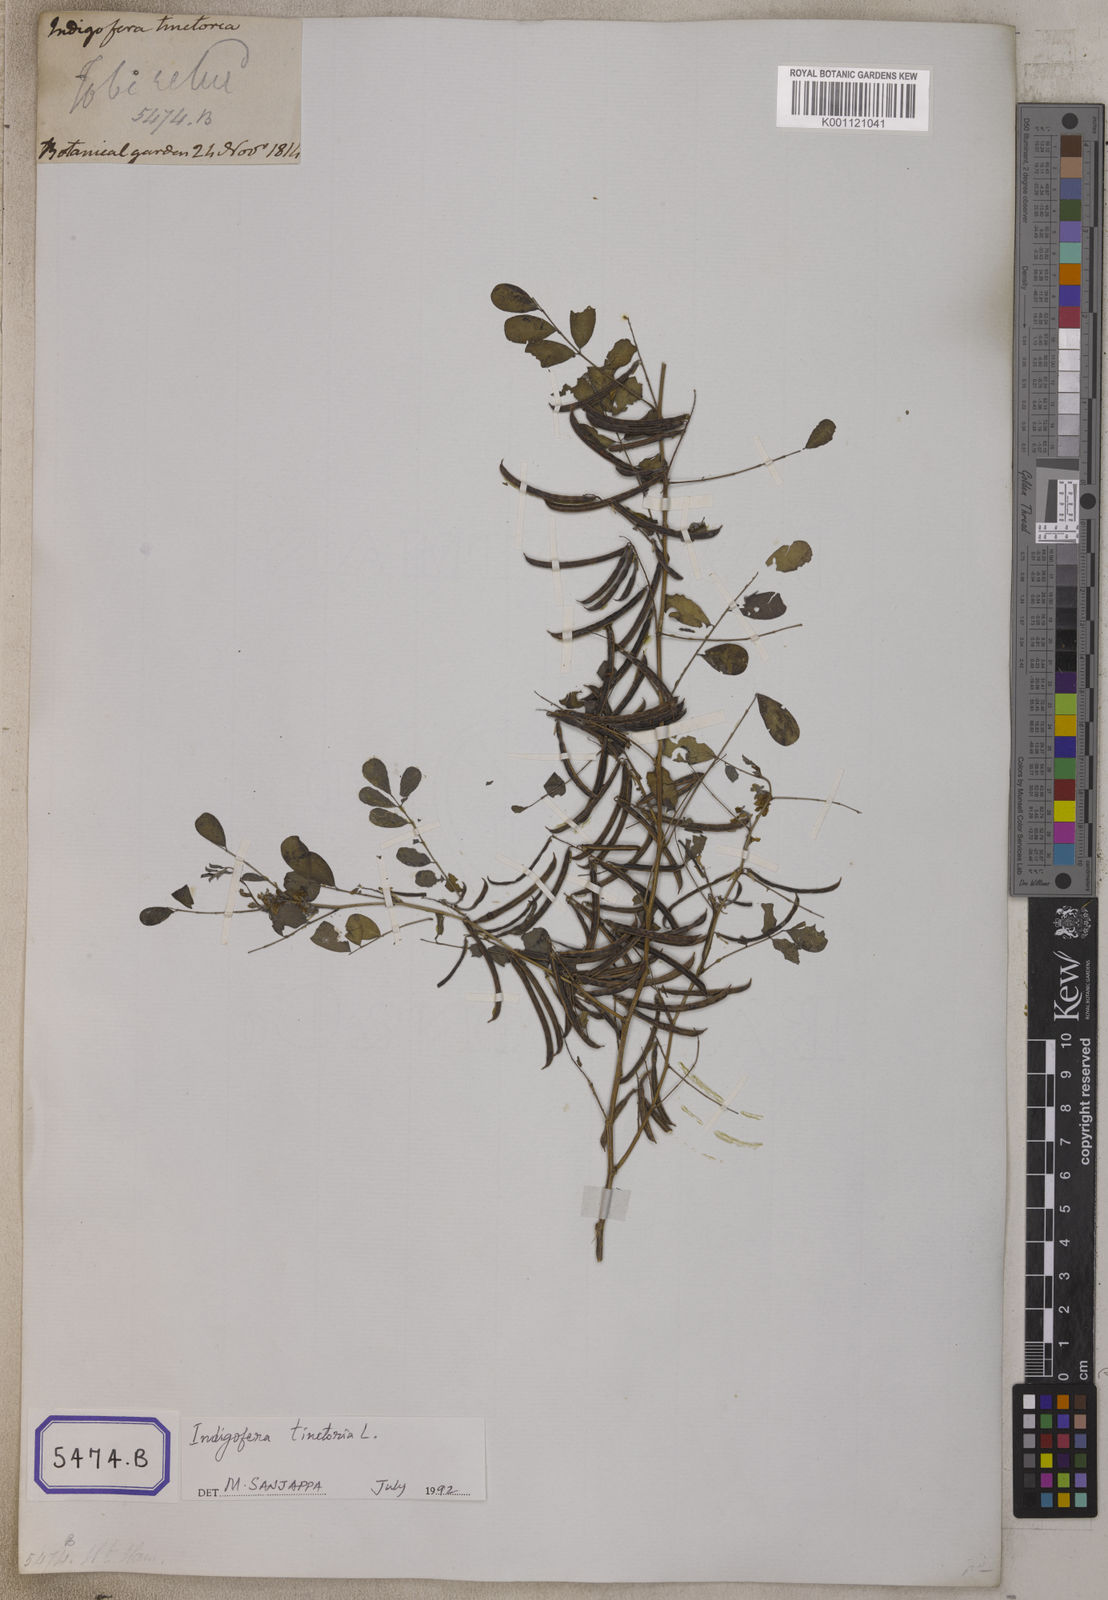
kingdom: Plantae
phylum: Tracheophyta
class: Magnoliopsida
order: Fabales
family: Fabaceae
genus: Indigofera
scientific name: Indigofera tinctoria
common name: True indigo
